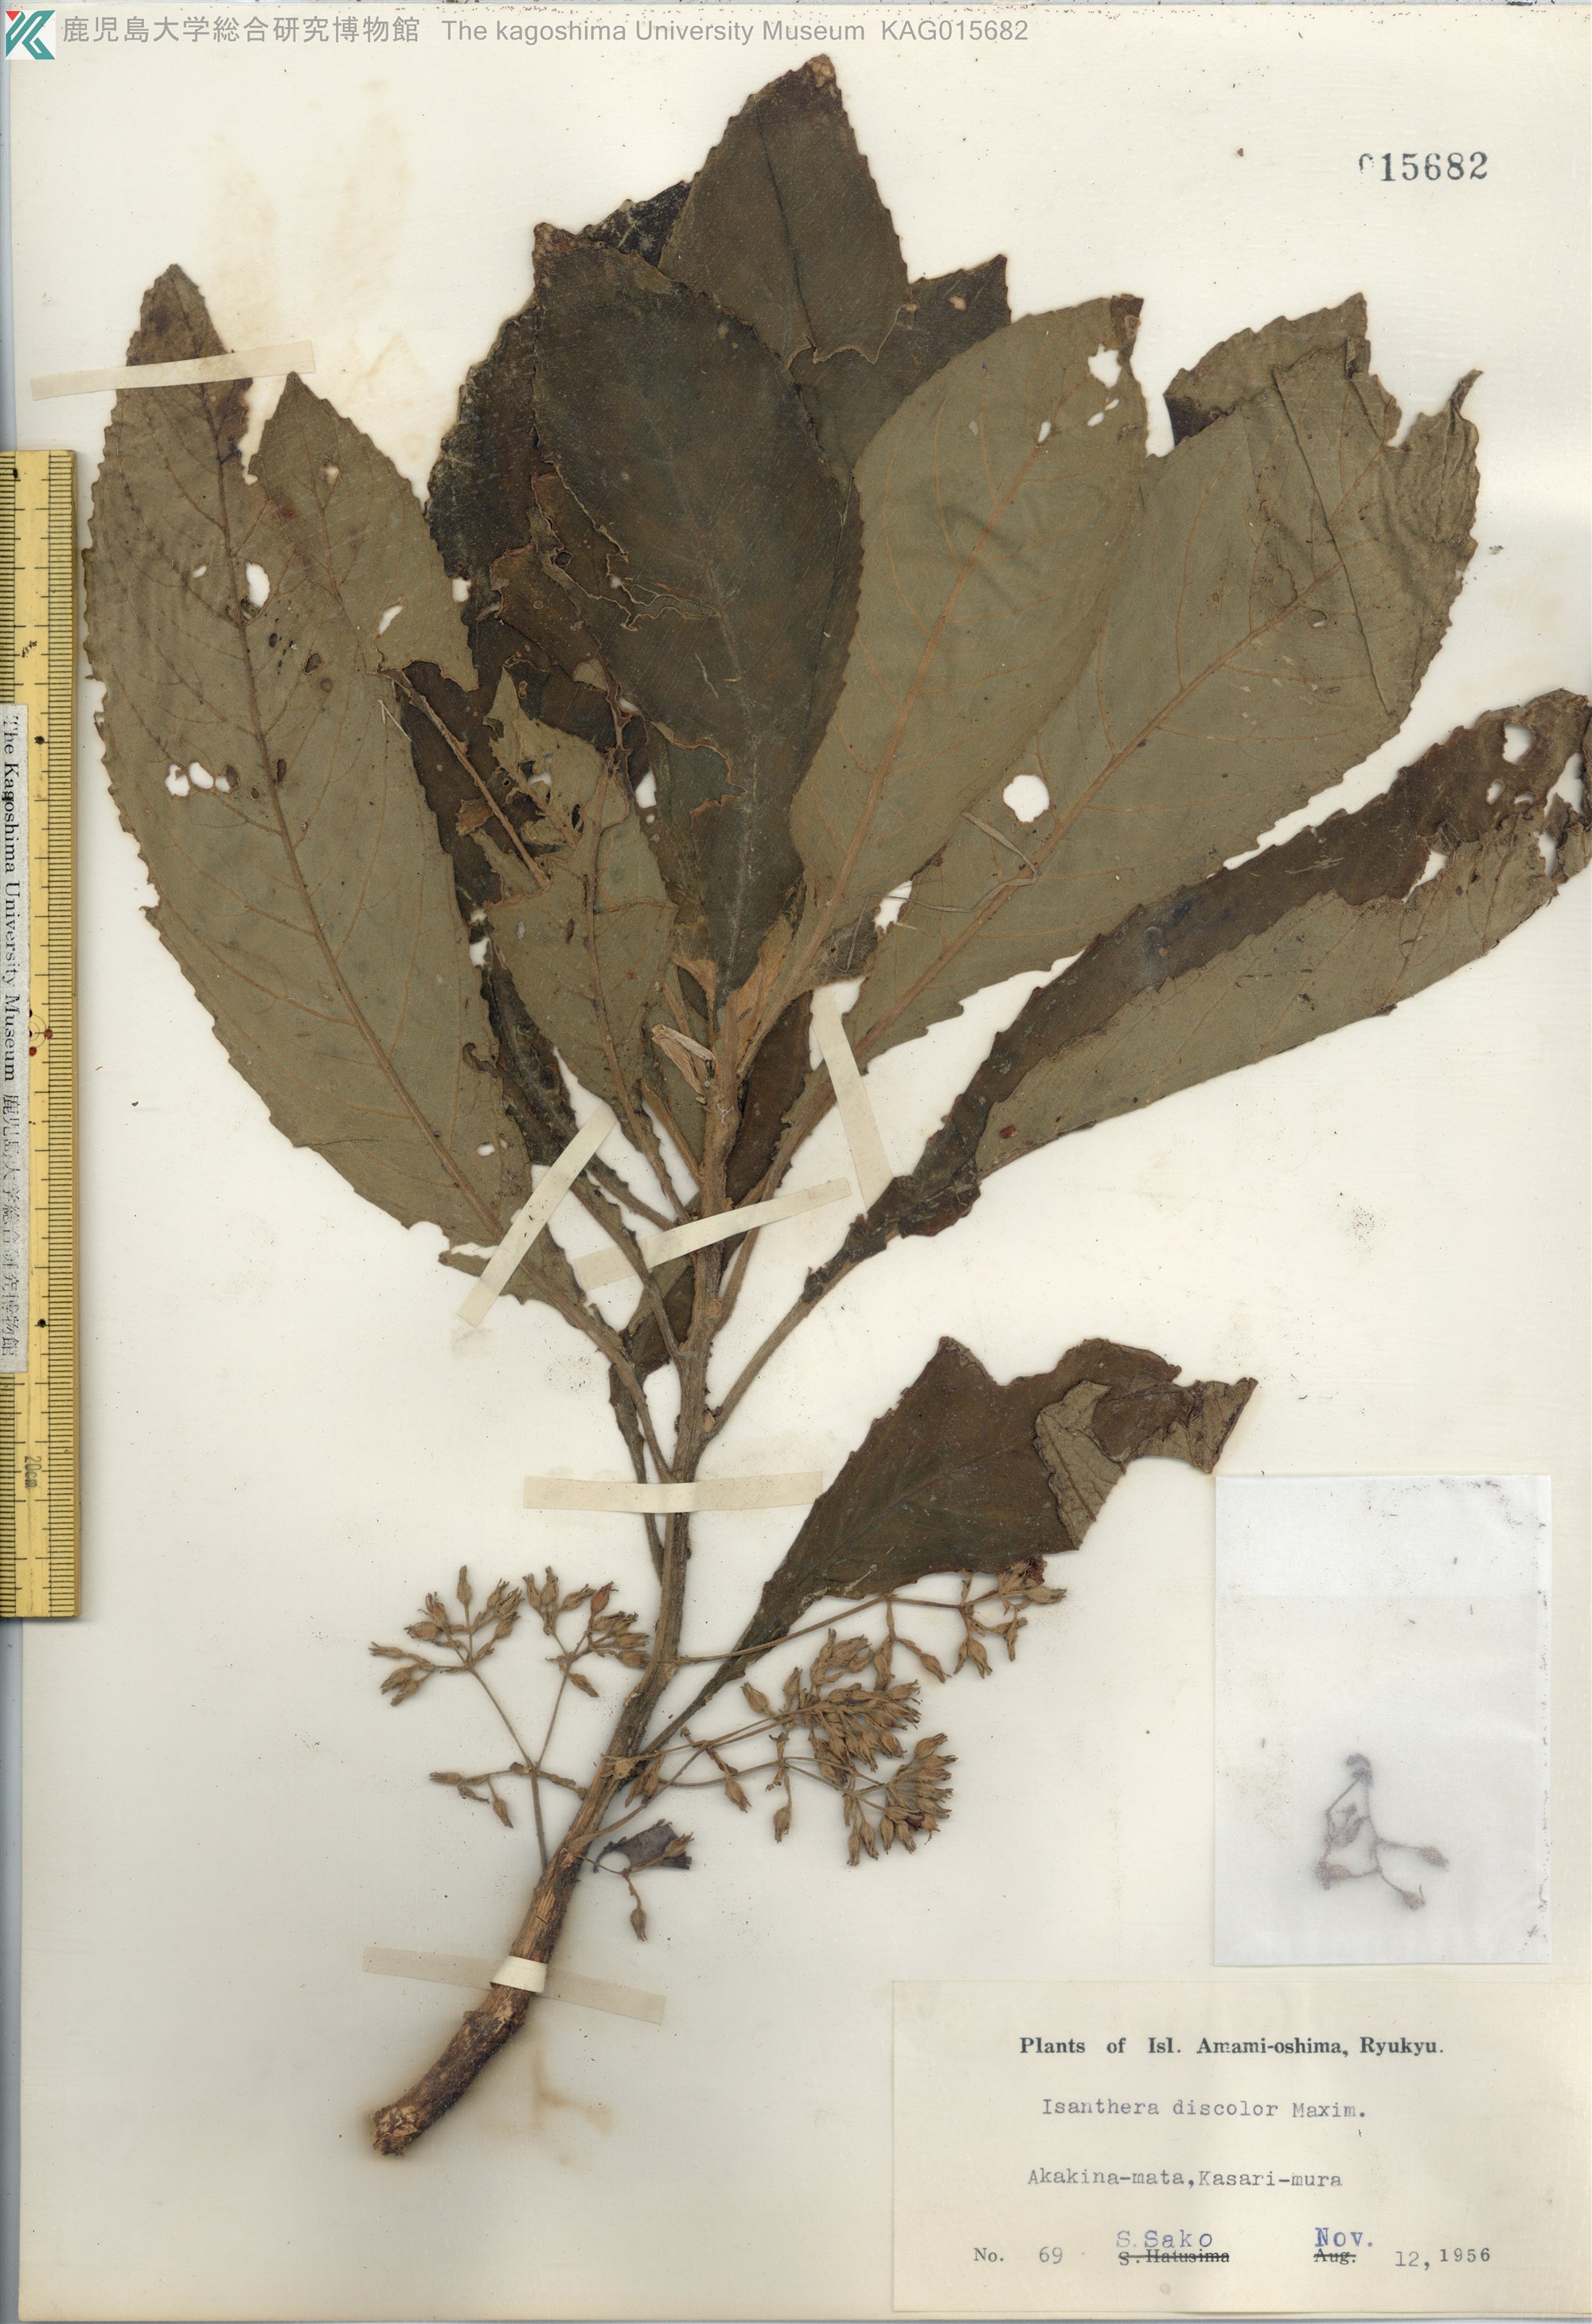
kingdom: Plantae
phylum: Tracheophyta
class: Magnoliopsida
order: Lamiales
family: Gesneriaceae
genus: Rhynchotechum
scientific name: Rhynchotechum discolor
